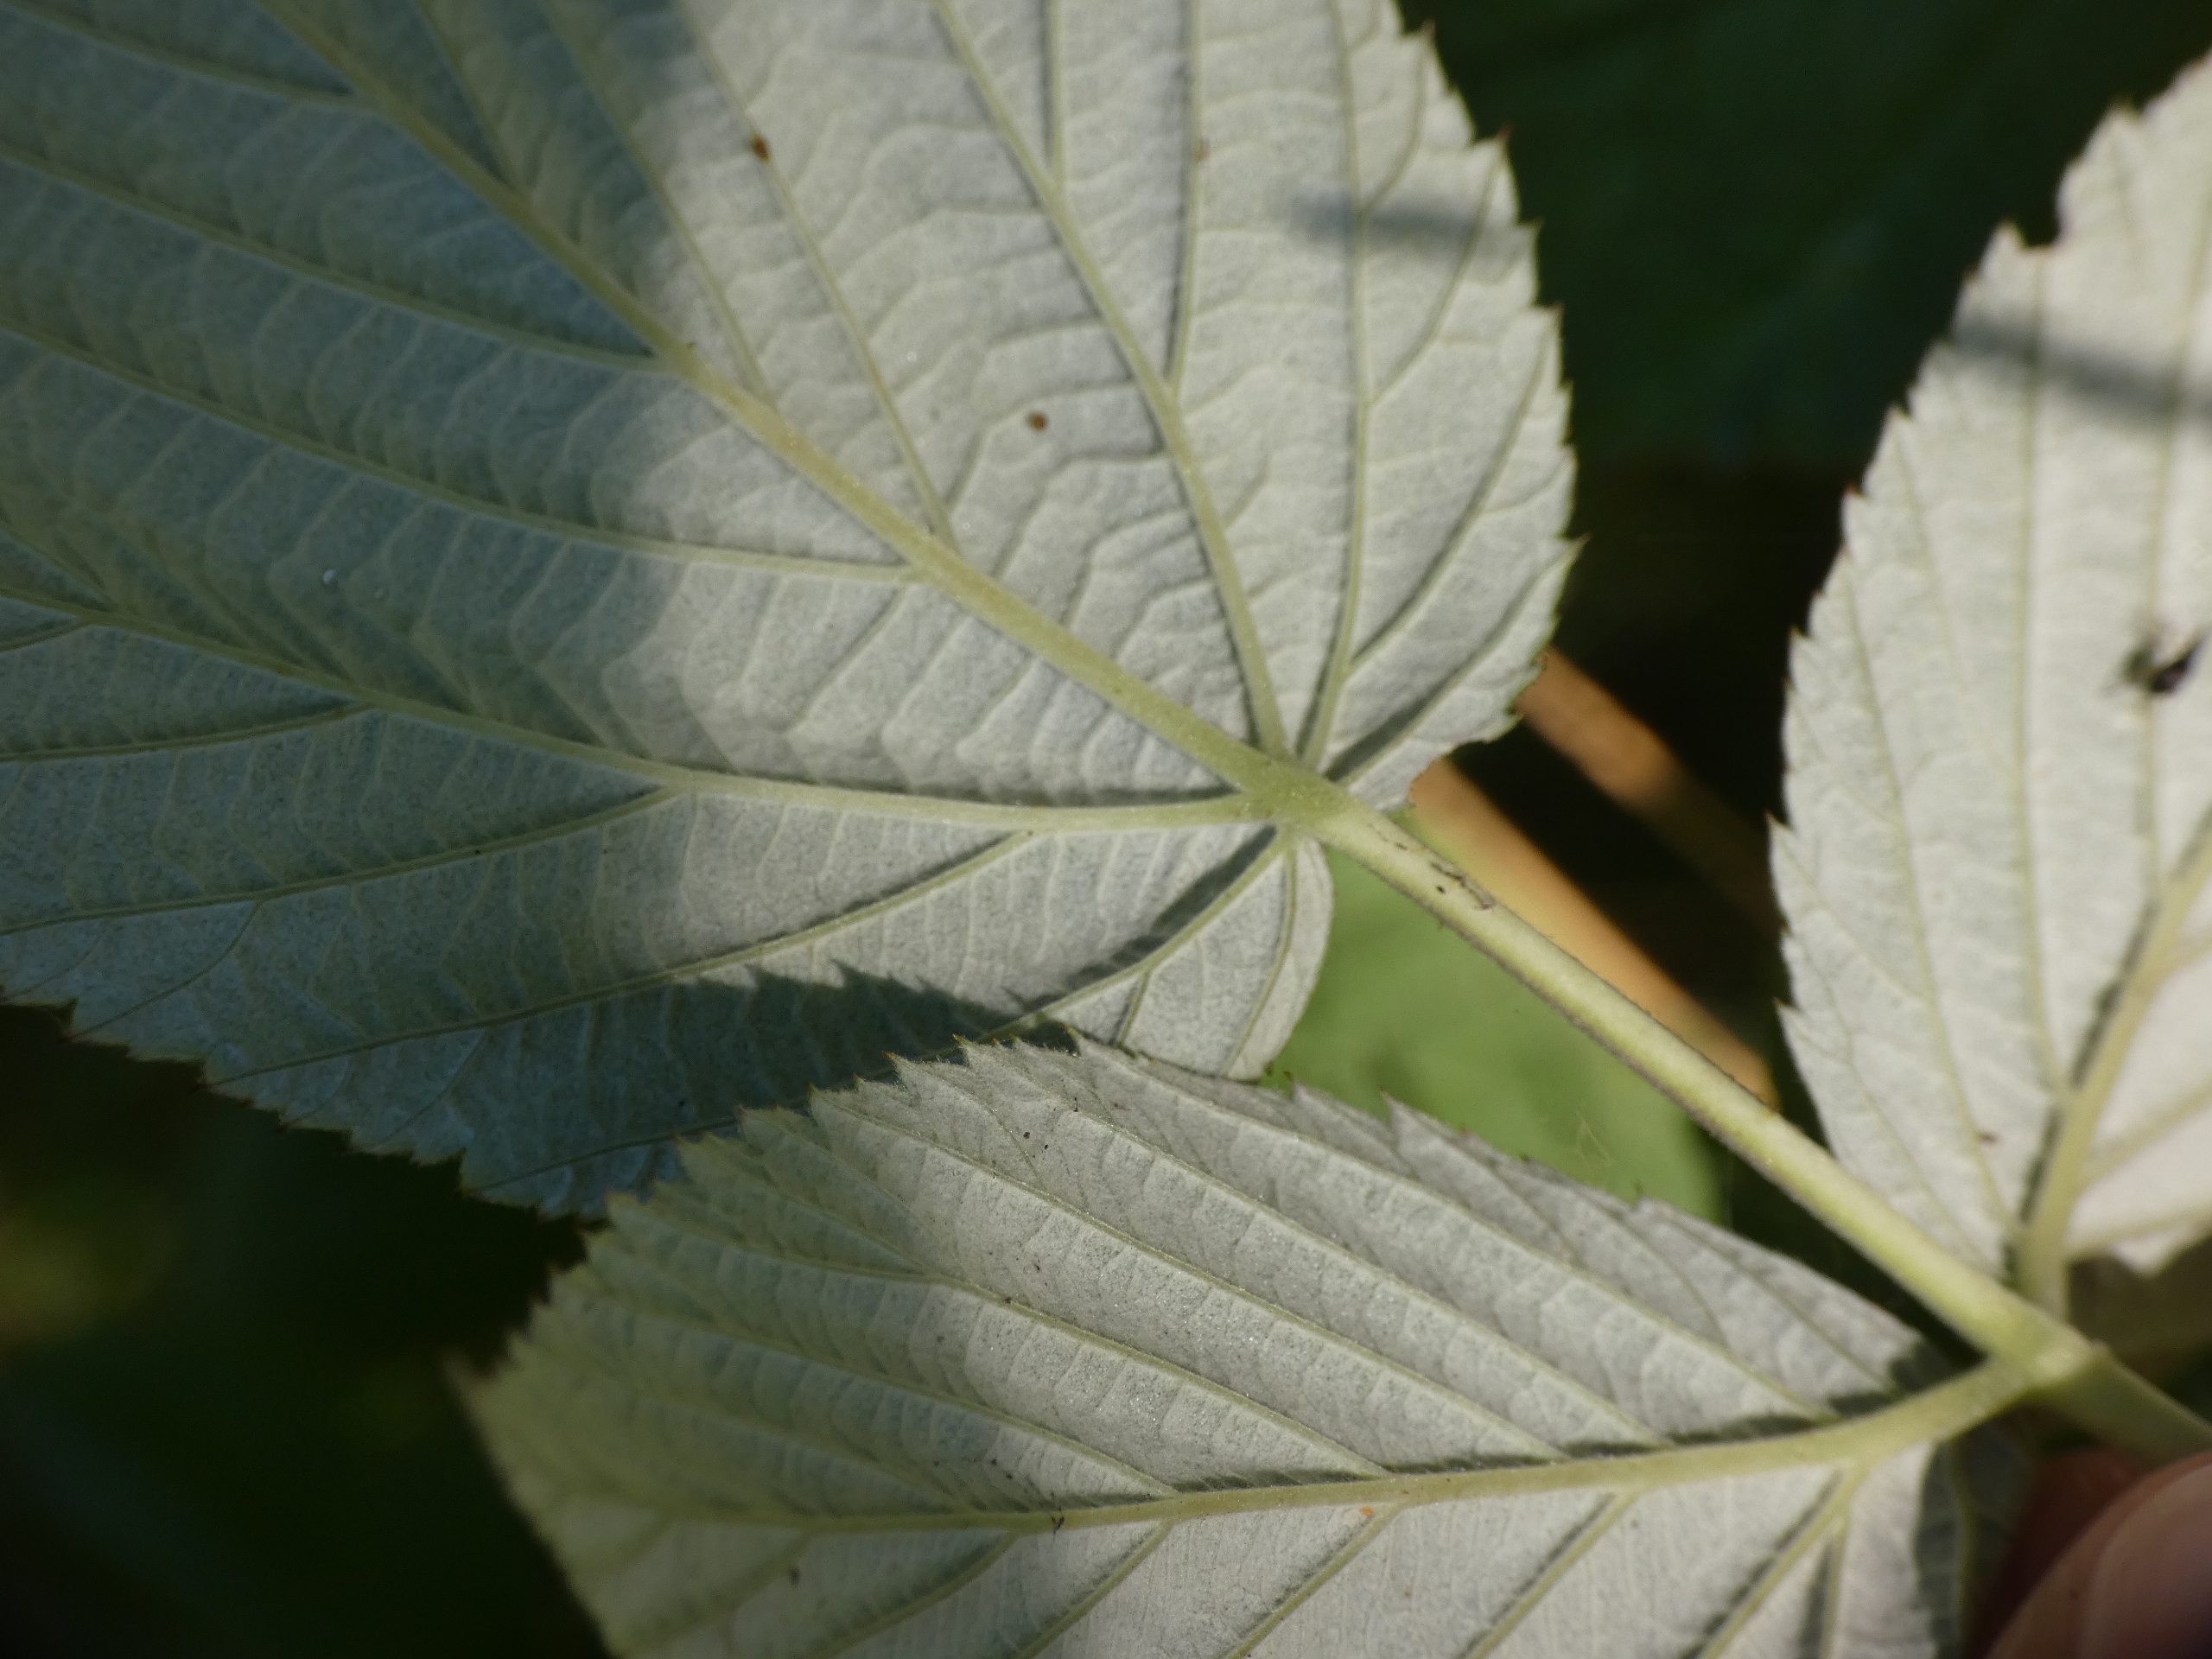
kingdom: Plantae
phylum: Tracheophyta
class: Magnoliopsida
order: Rosales
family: Rosaceae
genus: Rubus
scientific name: Rubus idaeus
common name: Hindbær
